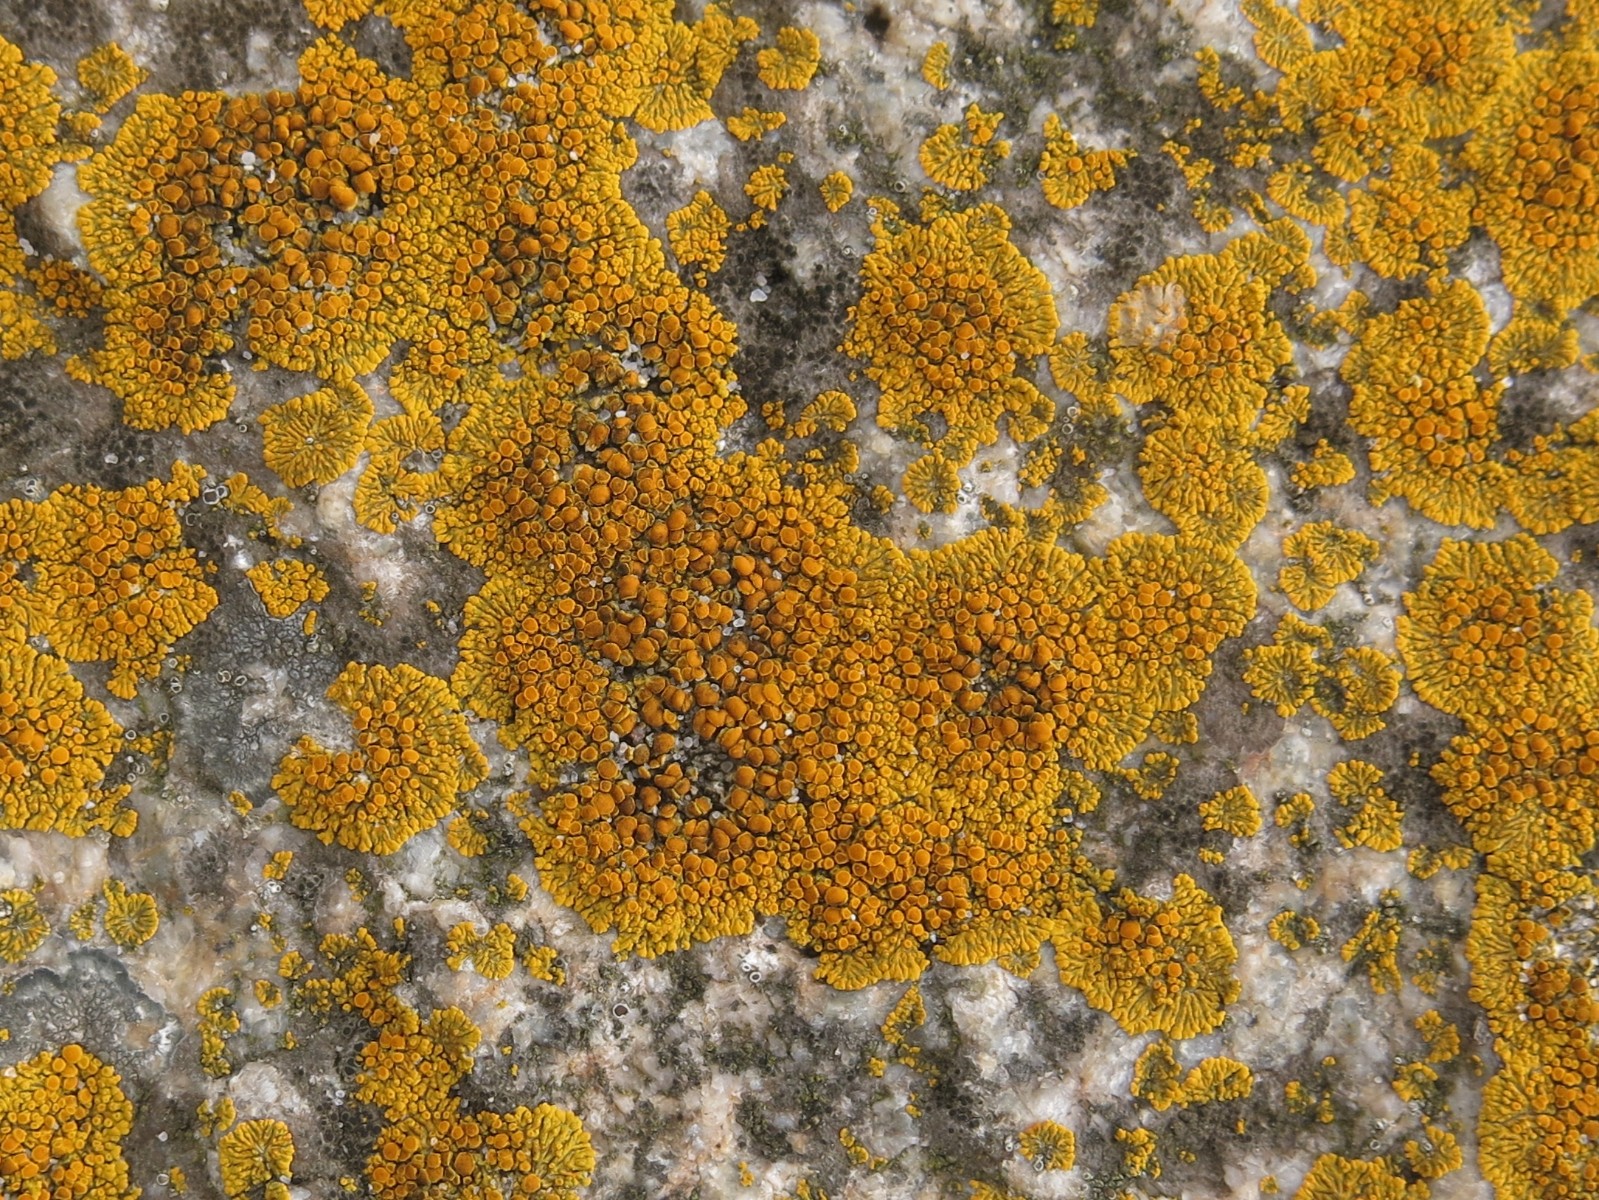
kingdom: Fungi
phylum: Ascomycota
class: Lecanoromycetes
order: Teloschistales
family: Teloschistaceae
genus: Athallia
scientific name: Athallia scopularis
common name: klippe-orangelav
